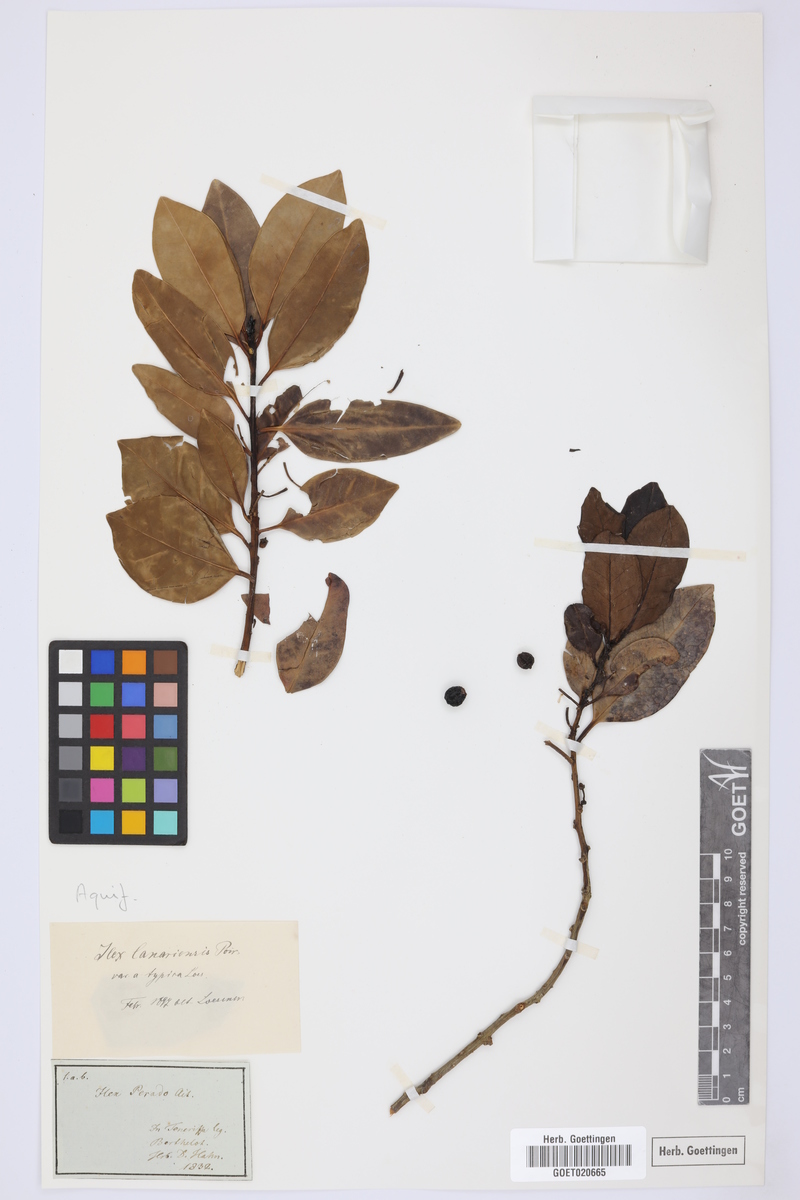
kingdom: Plantae
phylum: Tracheophyta
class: Magnoliopsida
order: Aquifoliales
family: Aquifoliaceae
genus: Ilex
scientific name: Ilex canariensis
